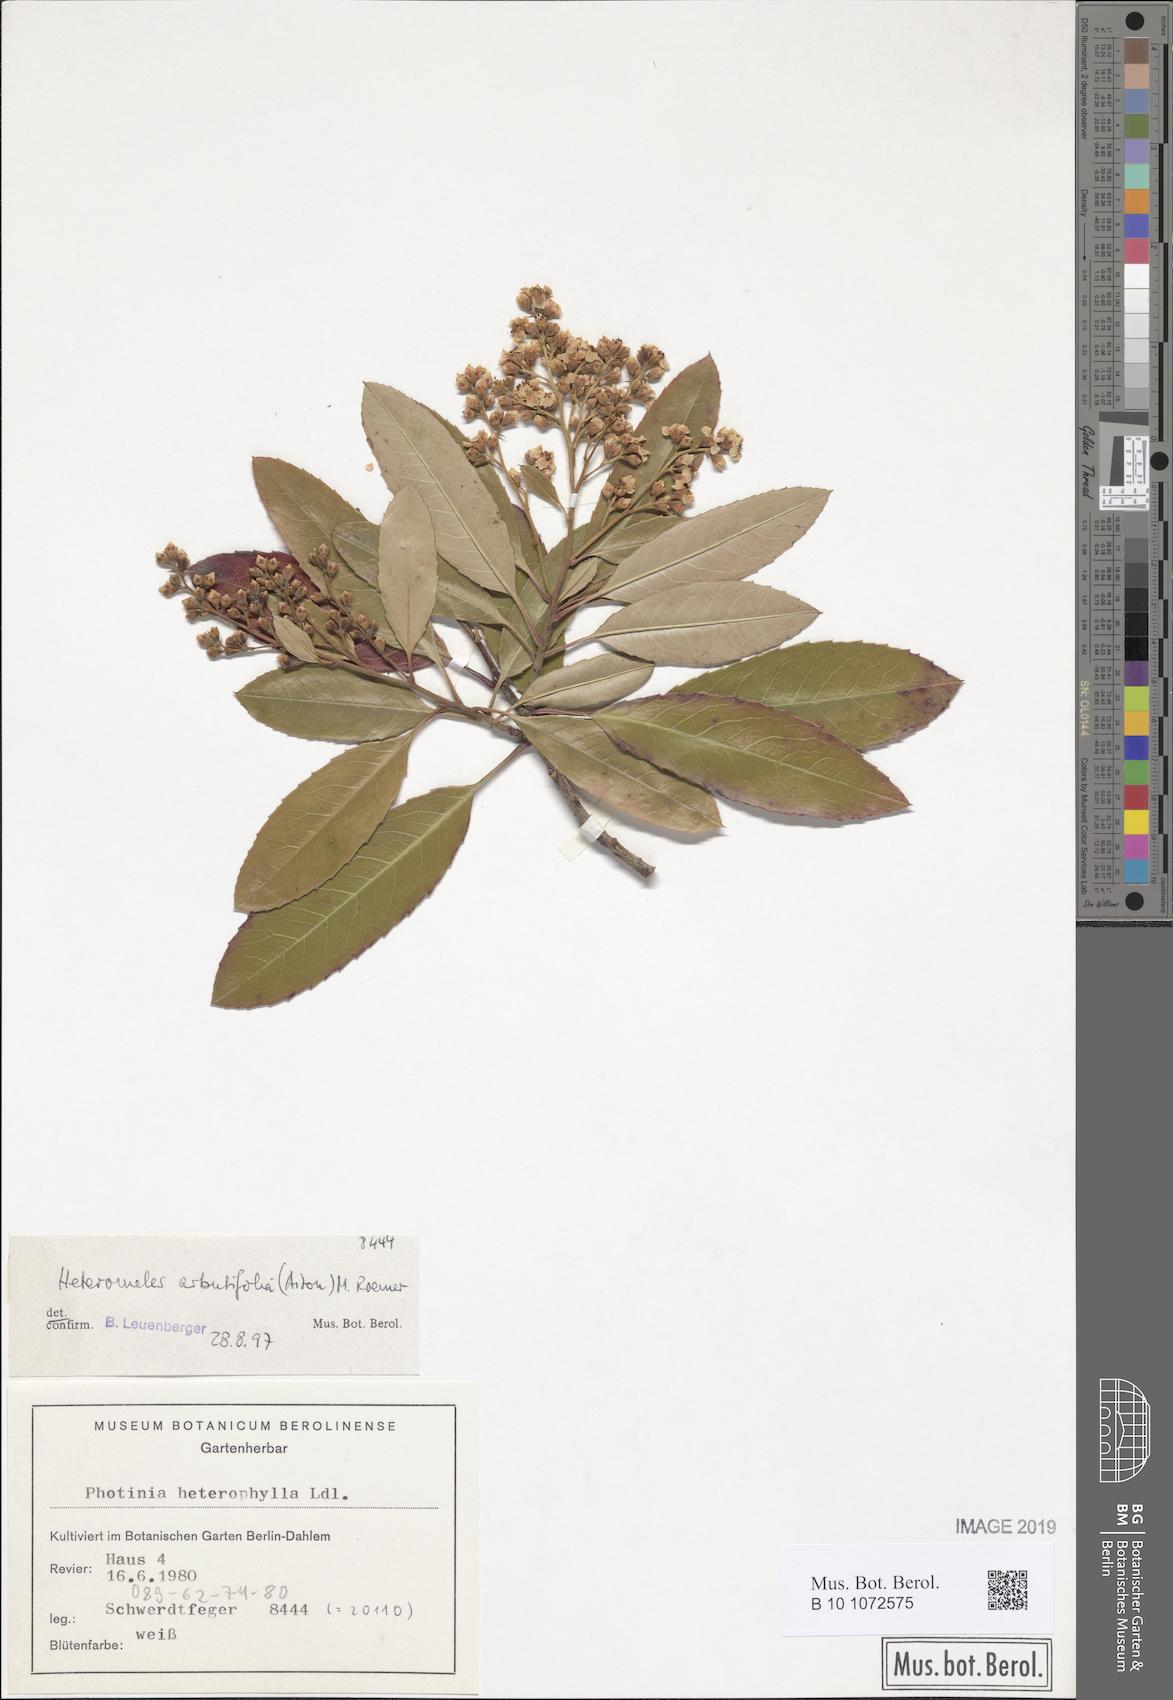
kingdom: Plantae
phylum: Tracheophyta
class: Magnoliopsida
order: Rosales
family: Rosaceae
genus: Heteromeles
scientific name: Heteromeles arbutifolia
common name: California-holly
